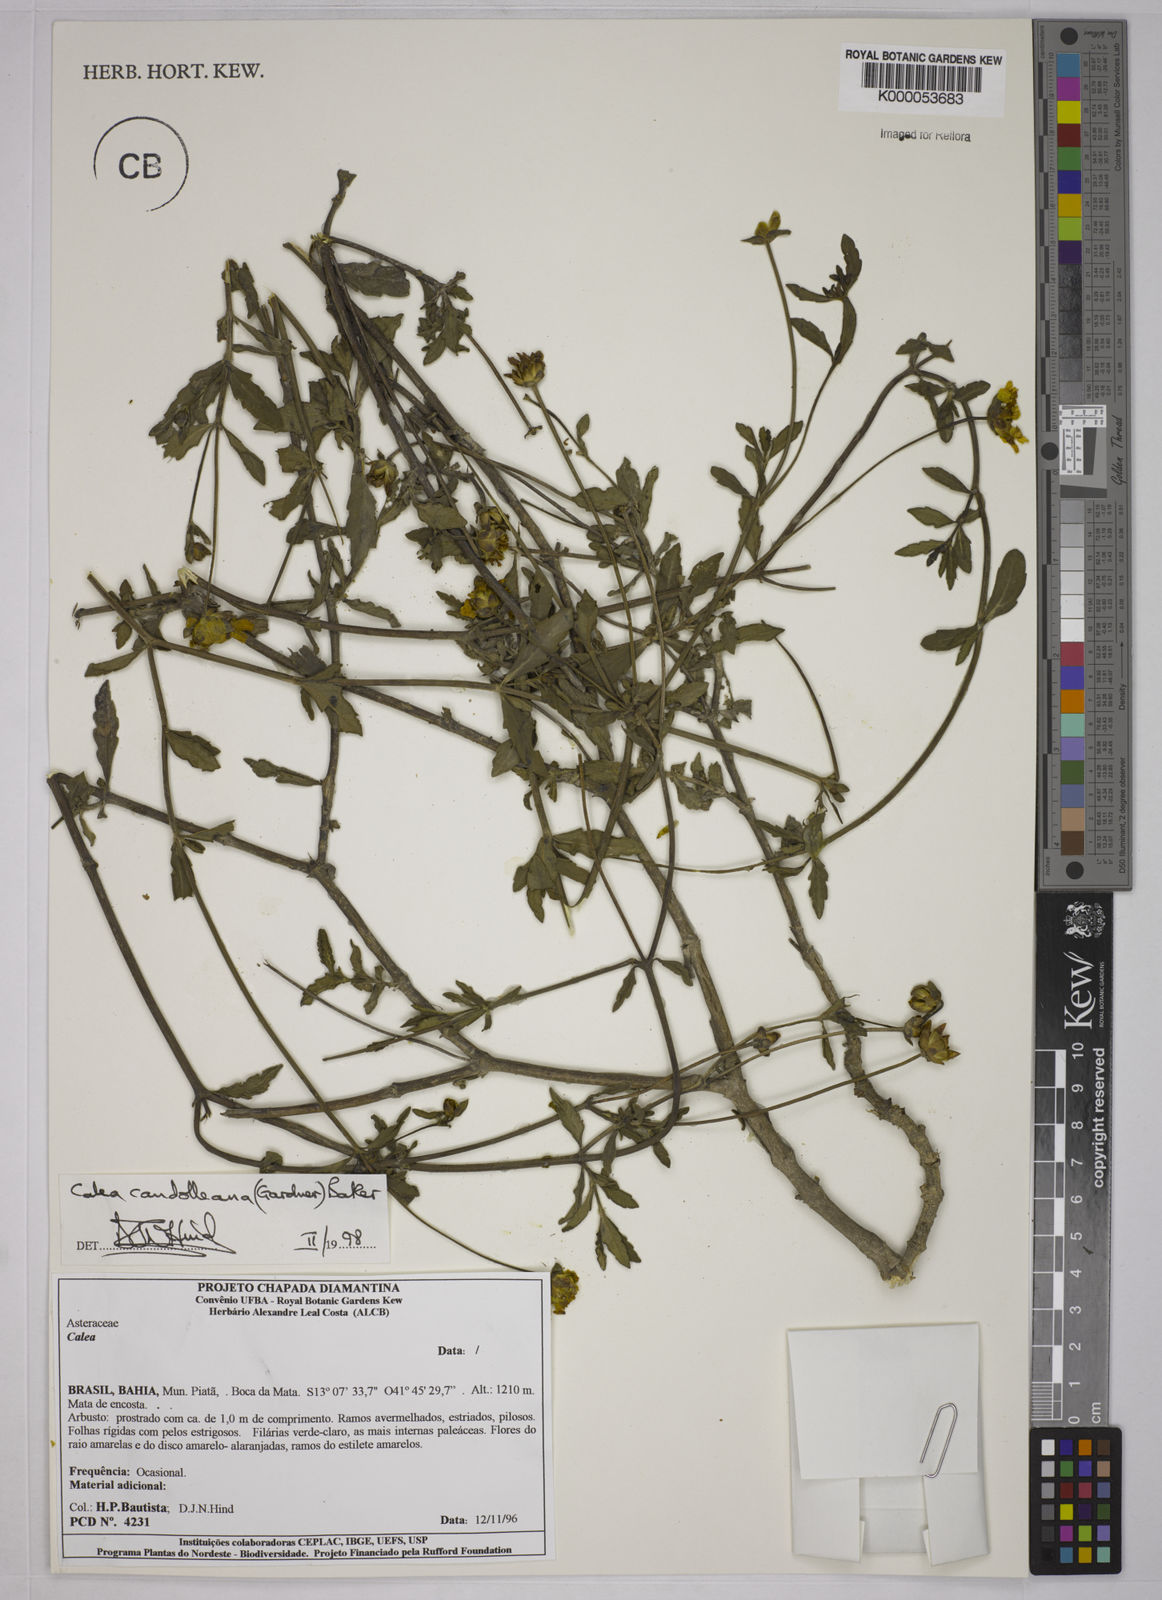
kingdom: Plantae
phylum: Tracheophyta
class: Magnoliopsida
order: Asterales
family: Asteraceae
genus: Calea
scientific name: Calea candolleana
